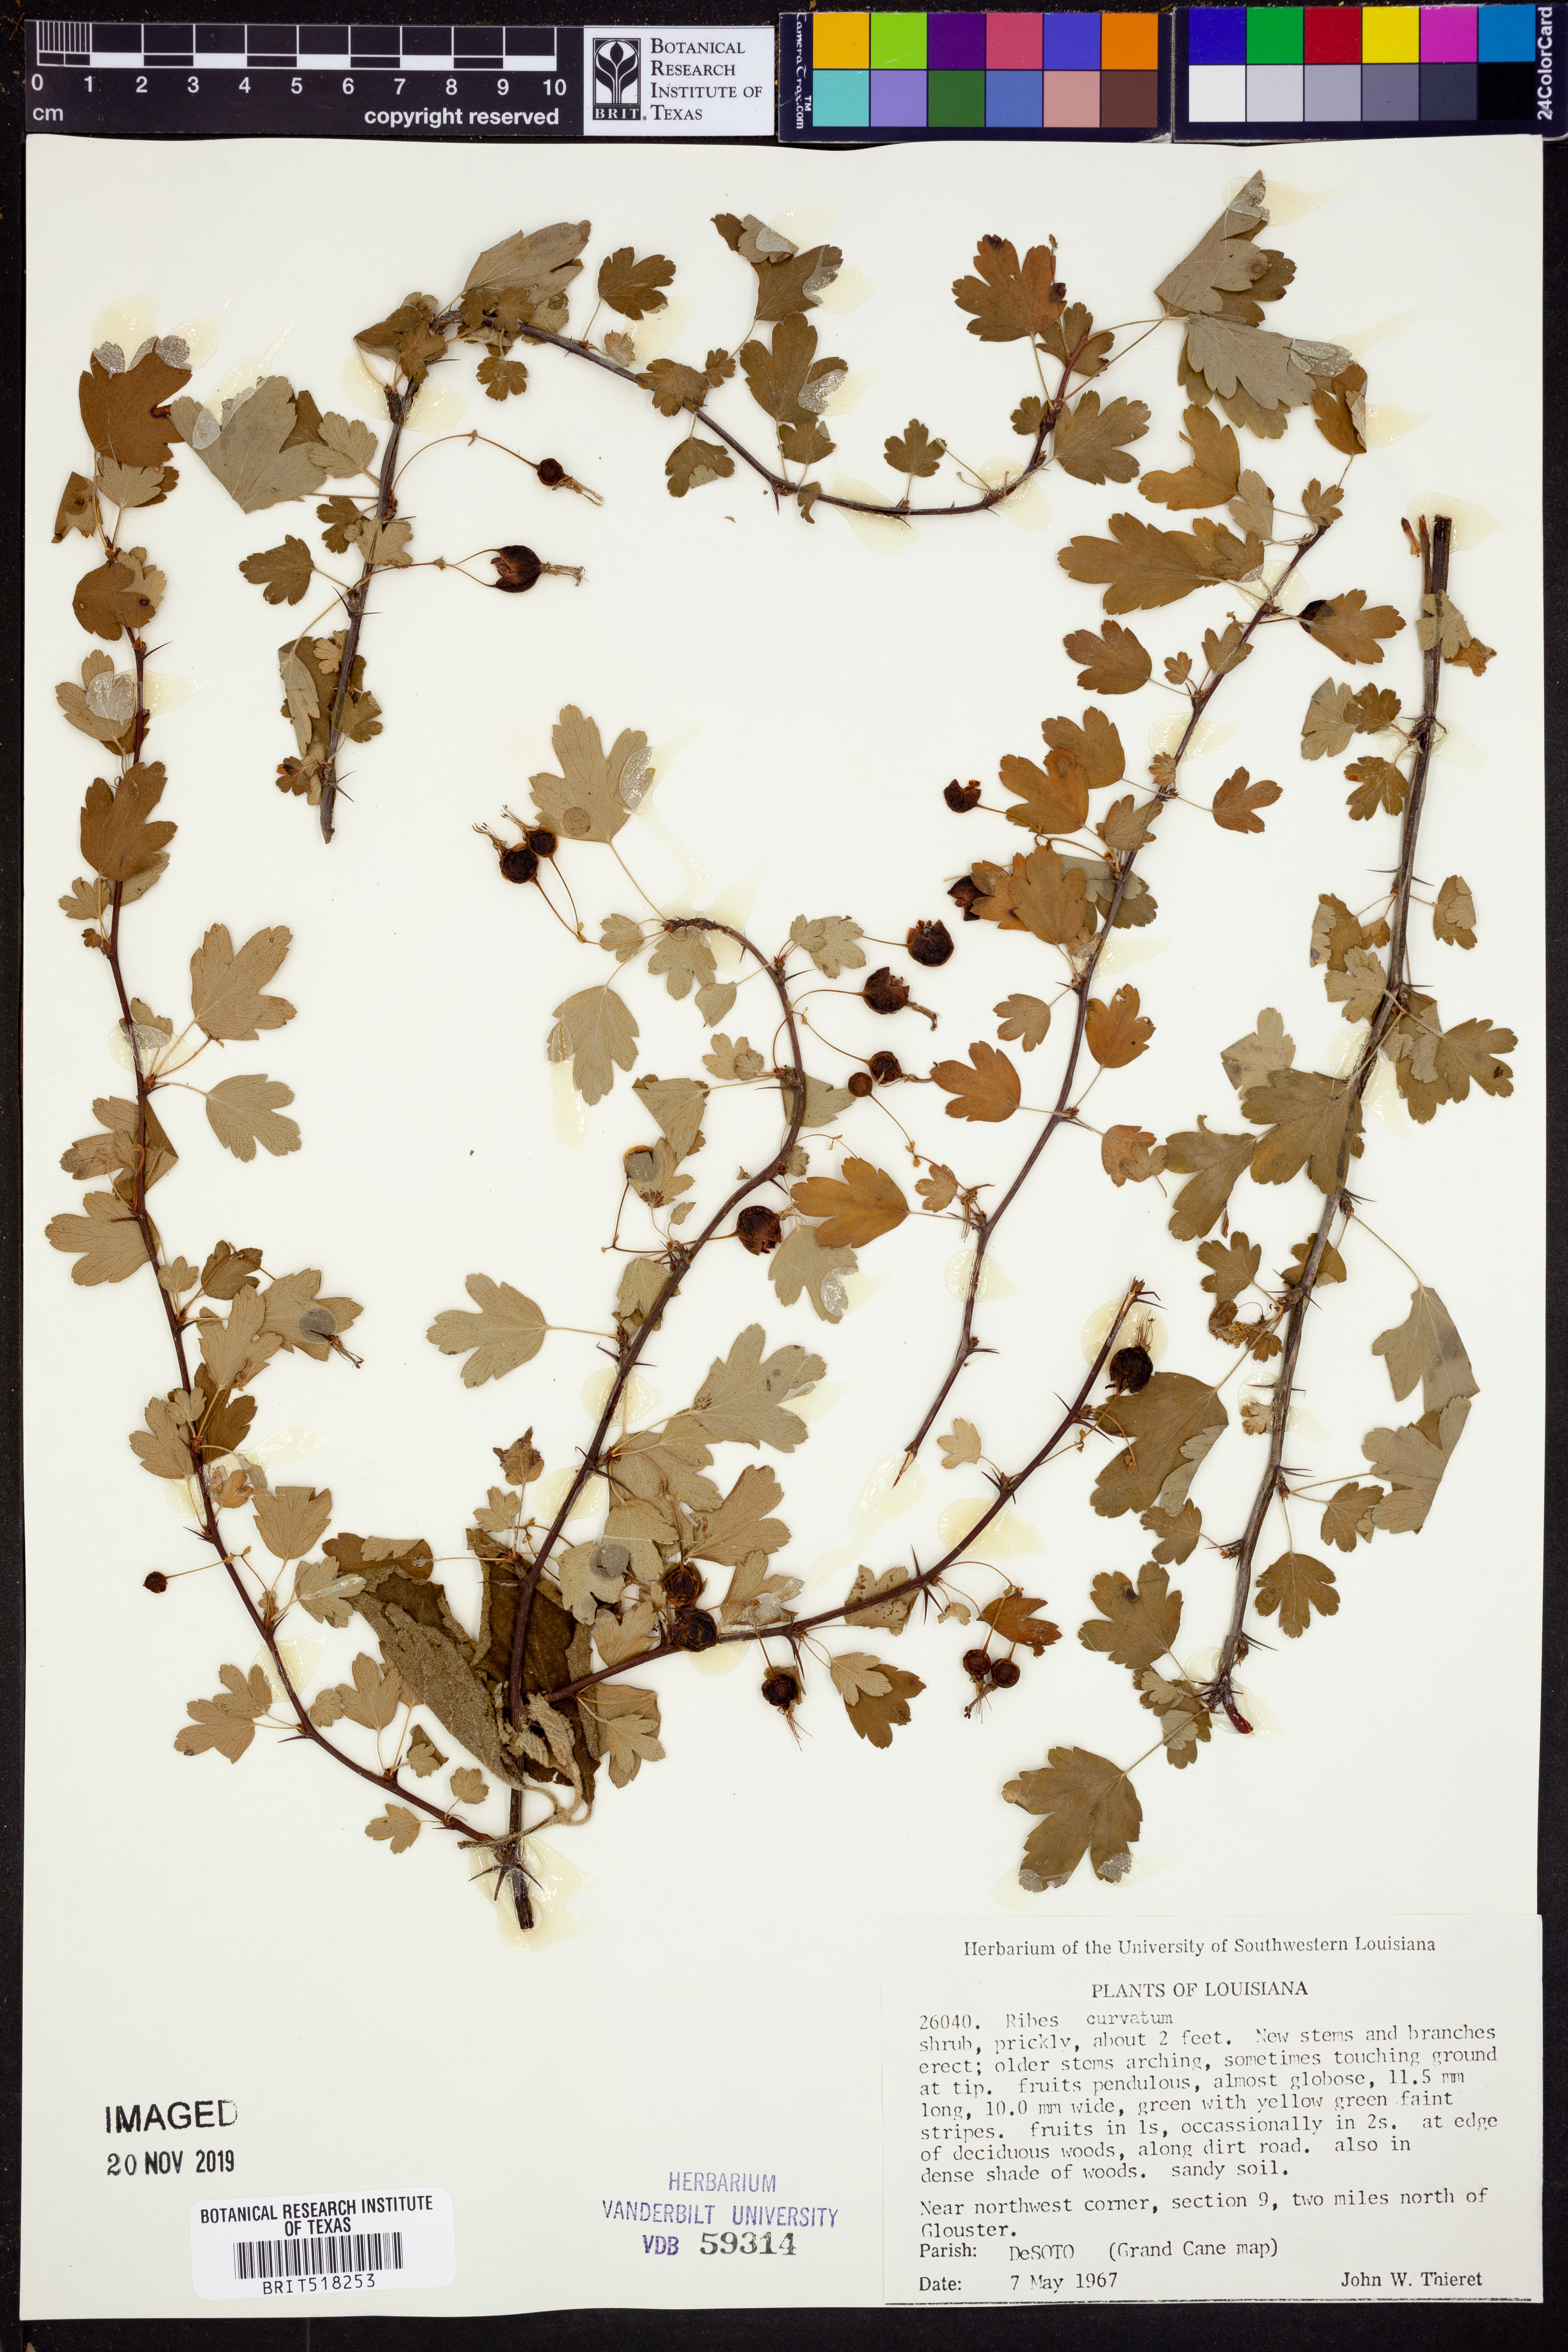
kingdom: Plantae
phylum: Tracheophyta
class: Magnoliopsida
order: Saxifragales
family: Grossulariaceae
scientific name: Grossulariaceae
